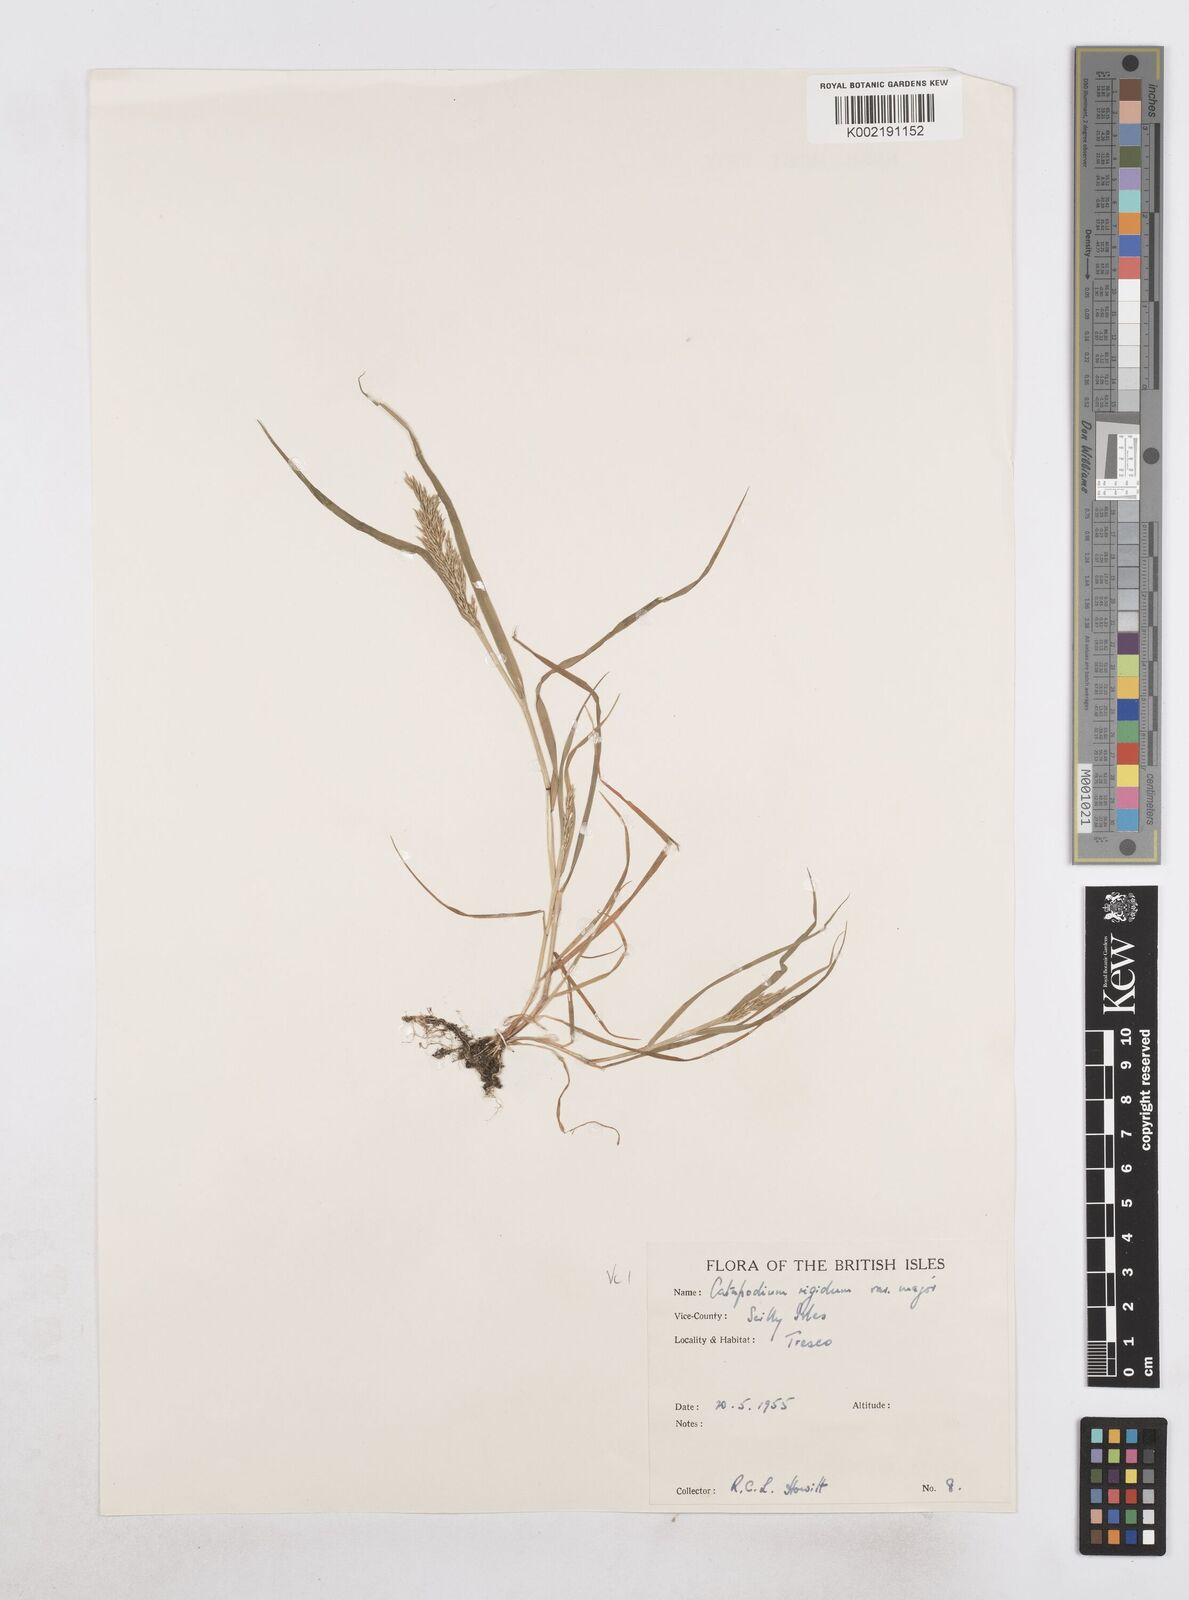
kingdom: Plantae
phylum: Tracheophyta
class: Liliopsida
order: Poales
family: Poaceae
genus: Catapodium
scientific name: Catapodium rigidum
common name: Fern-grass
